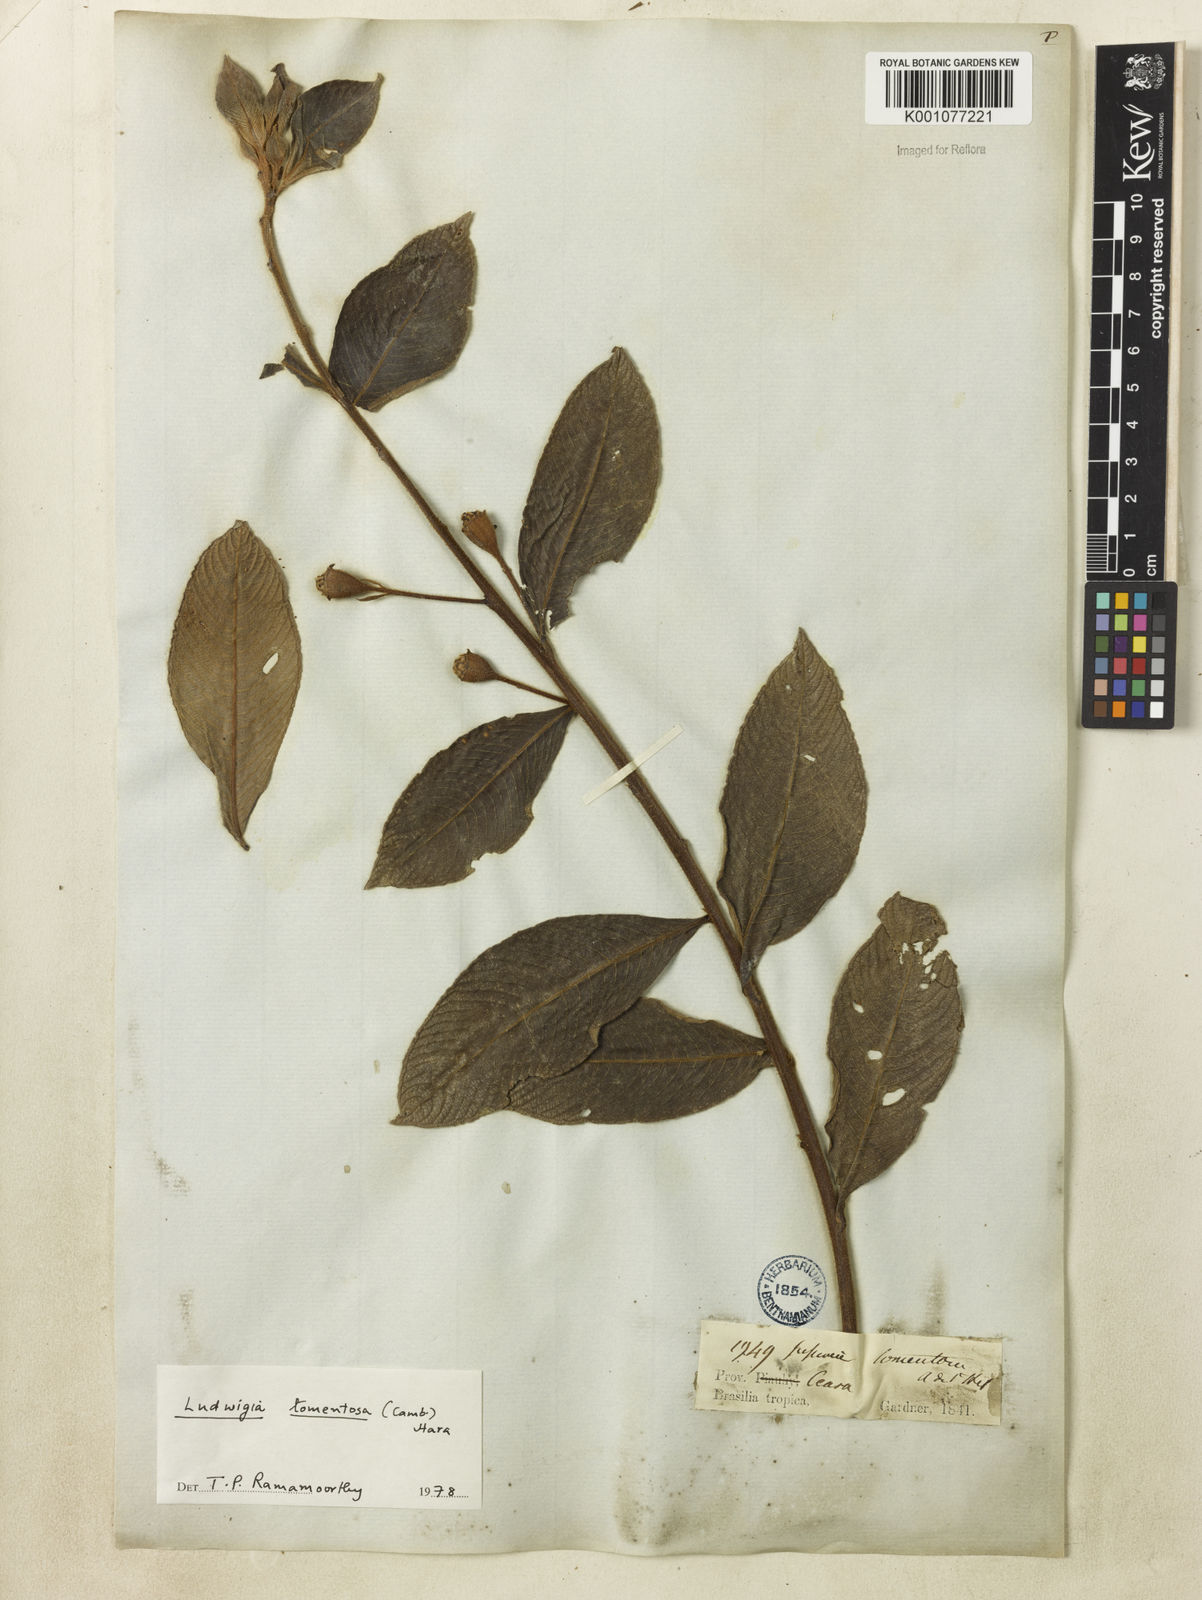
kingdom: Plantae
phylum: Tracheophyta
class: Magnoliopsida
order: Myrtales
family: Onagraceae
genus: Ludwigia
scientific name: Ludwigia tomentosa
